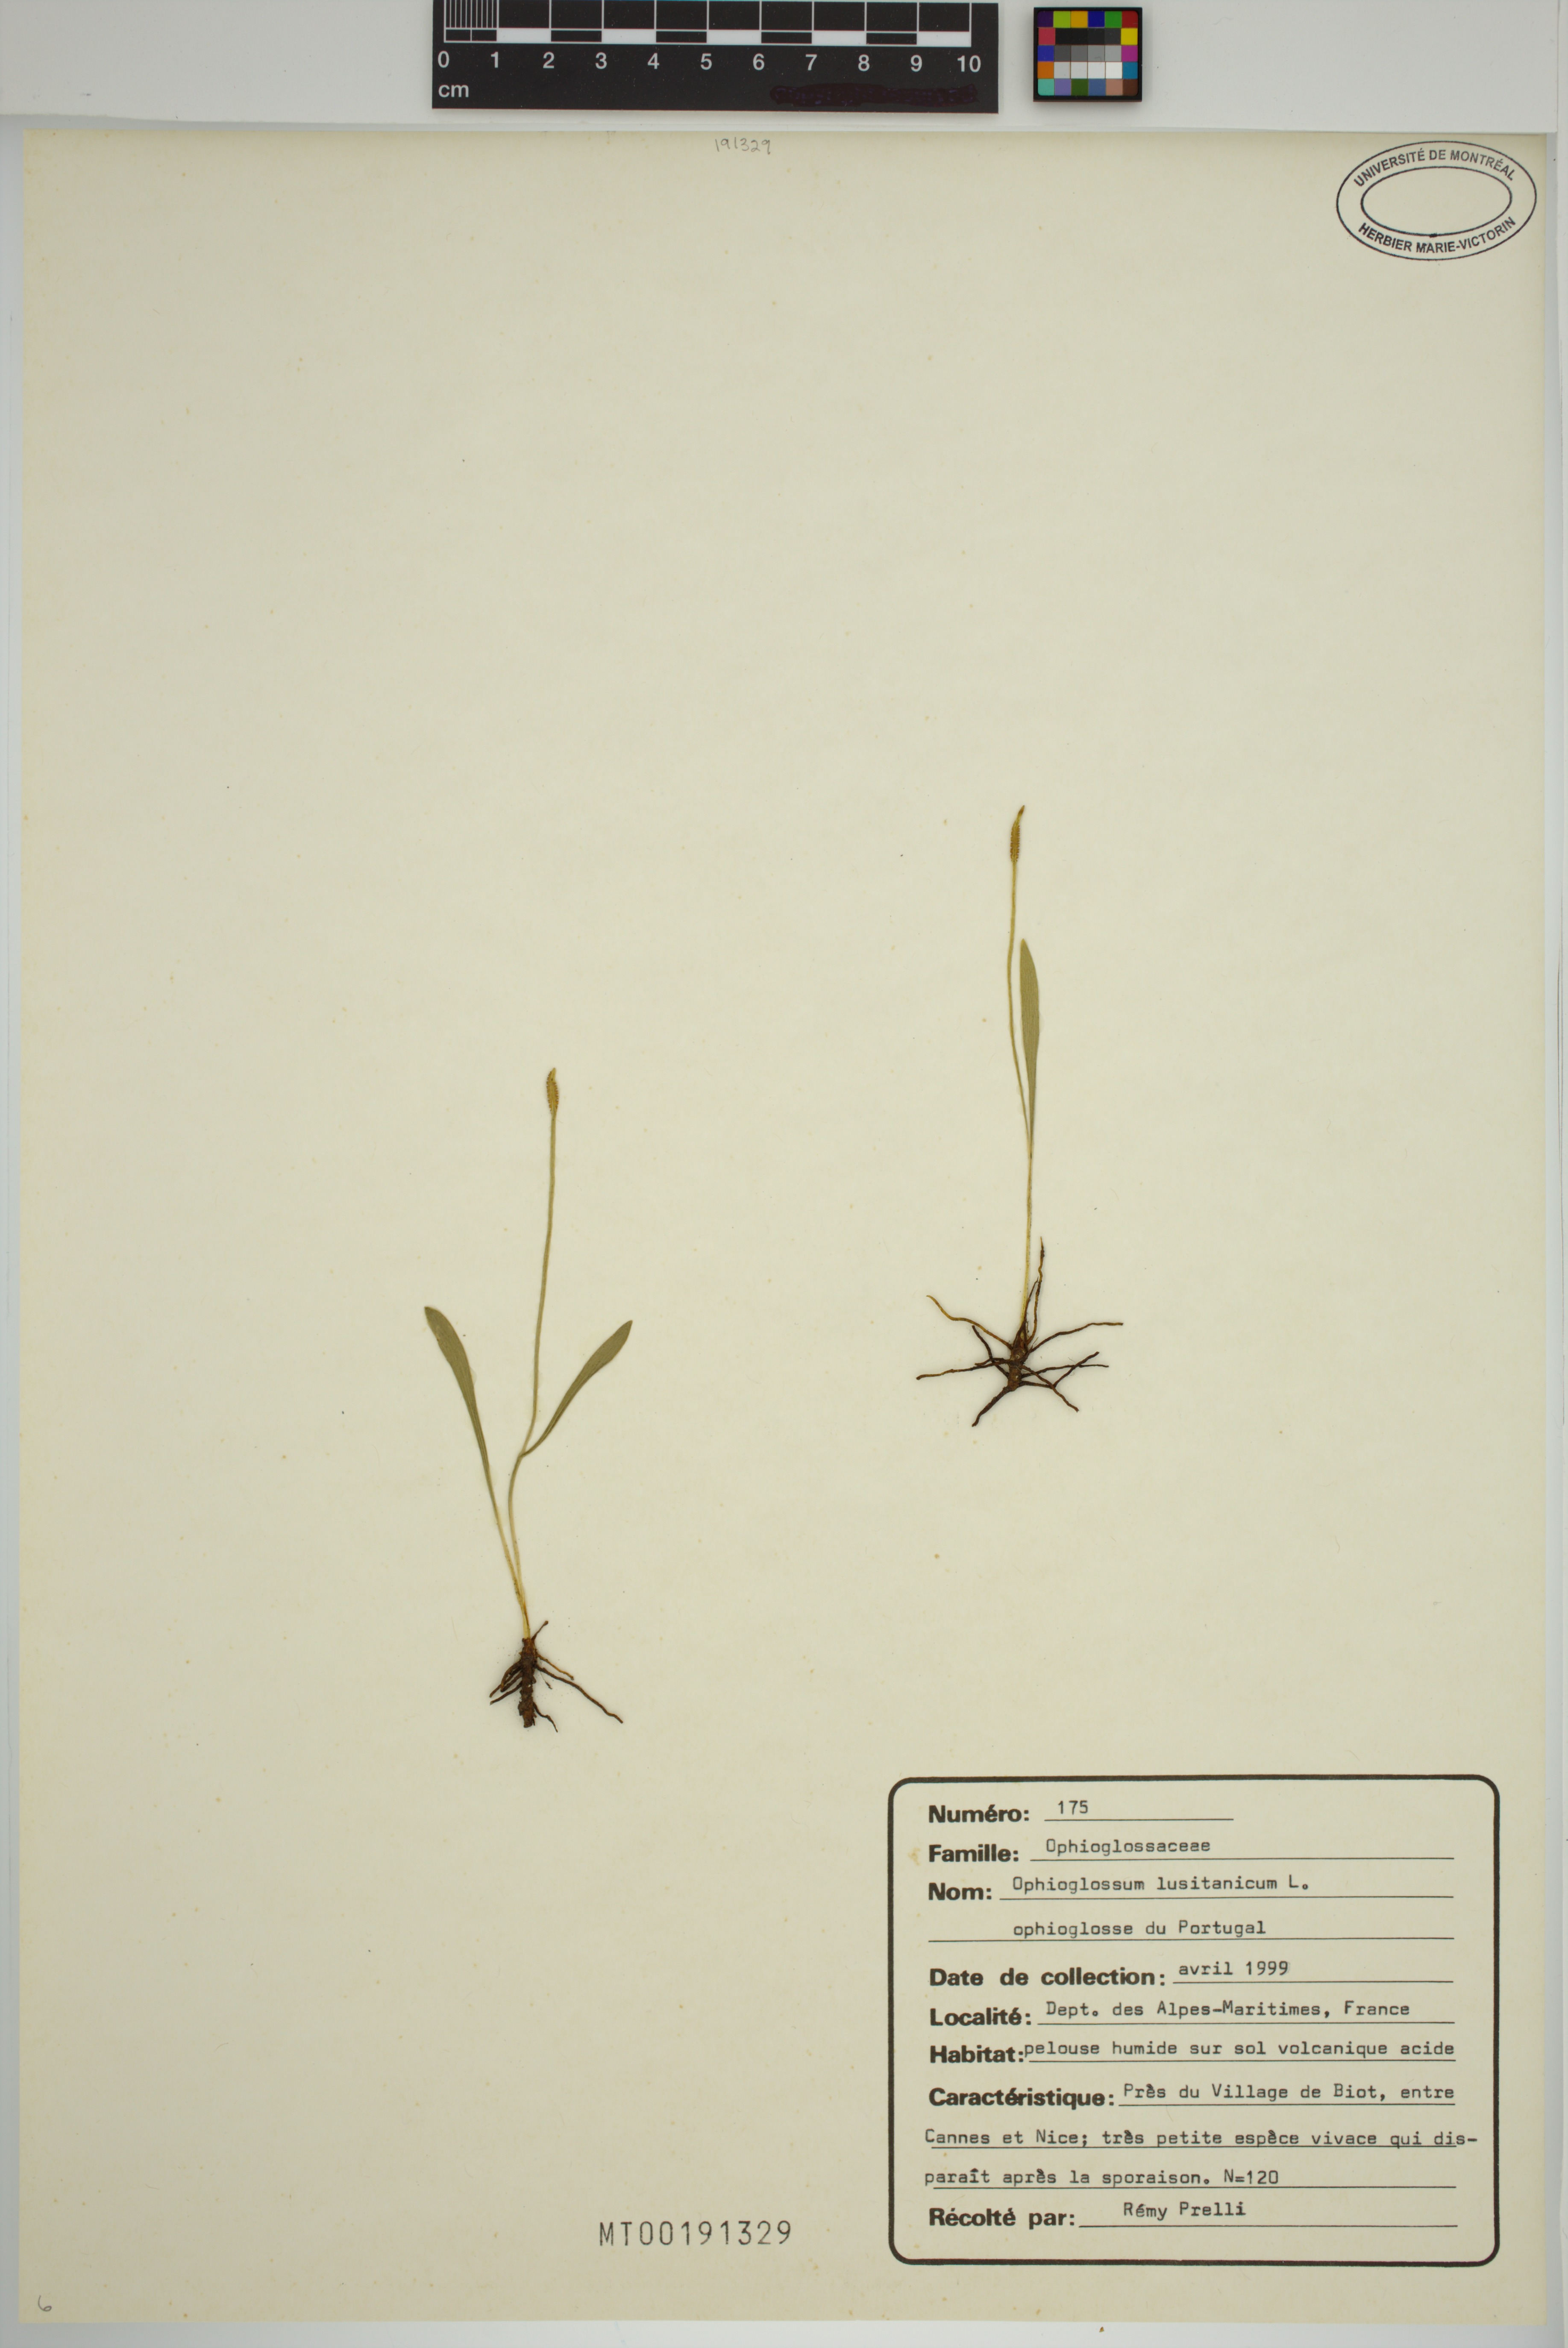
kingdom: Plantae
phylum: Tracheophyta
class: Polypodiopsida
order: Ophioglossales
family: Ophioglossaceae
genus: Ophioglossum
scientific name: Ophioglossum lusitanicum
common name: Least adder's-tongue
